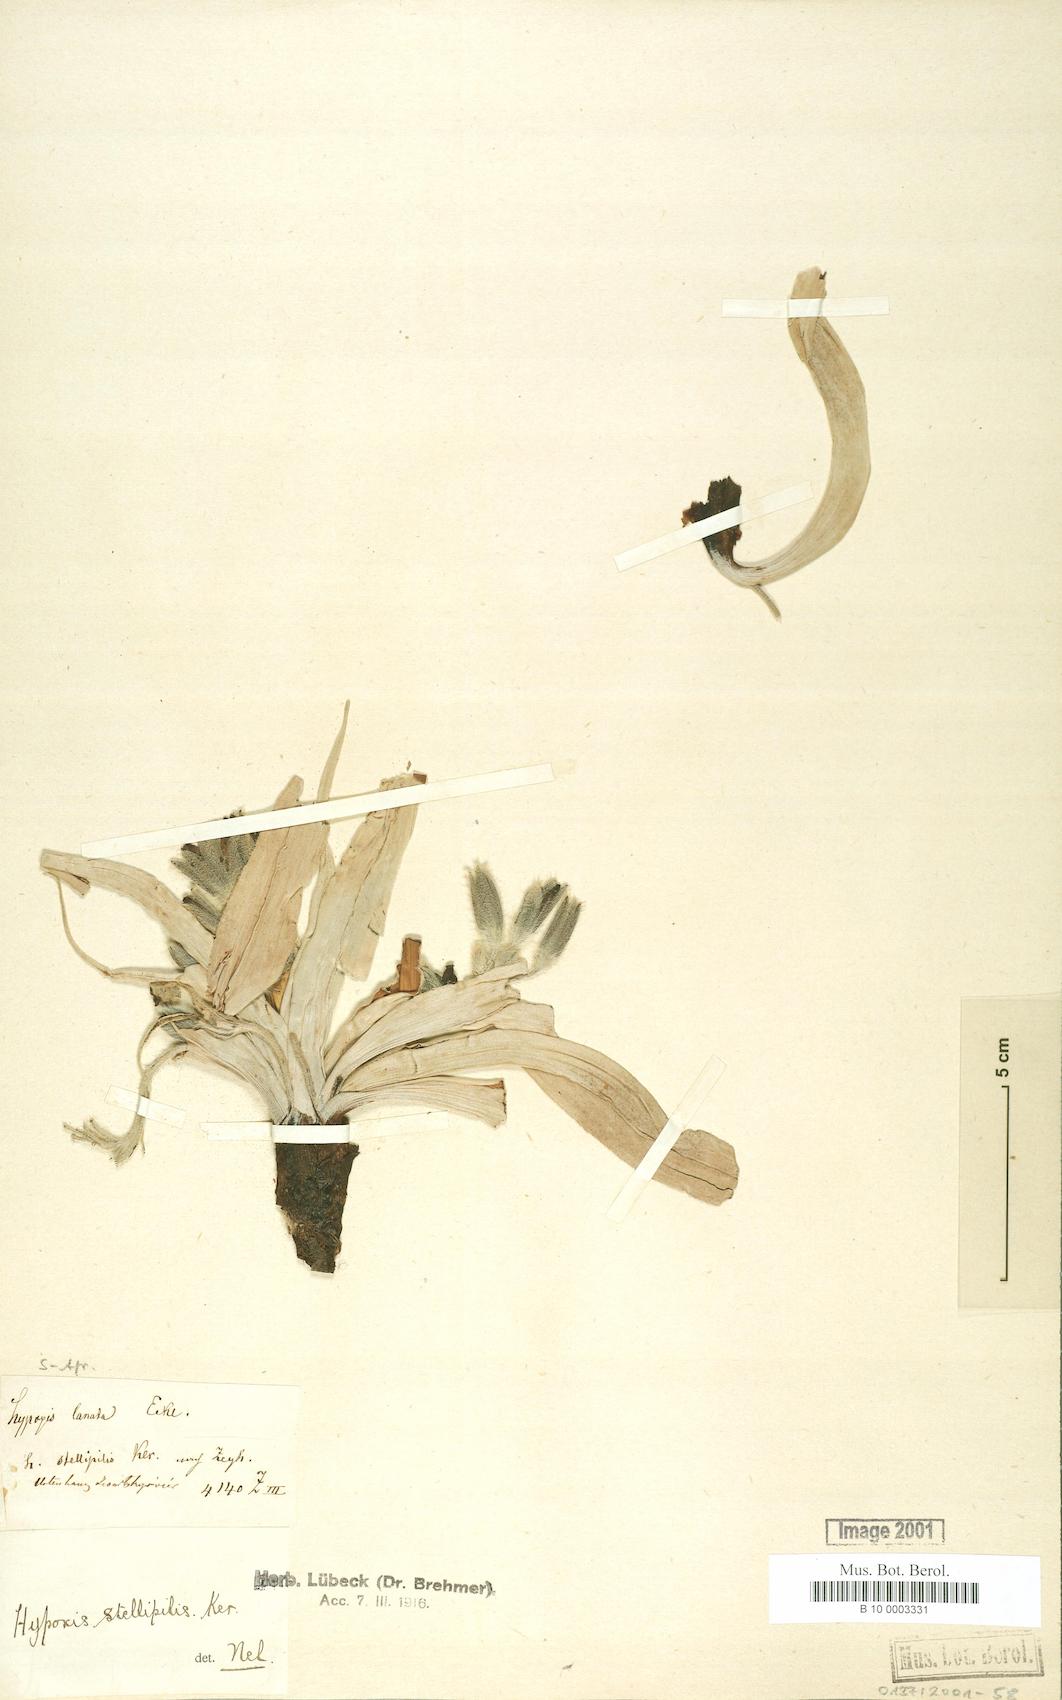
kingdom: Plantae
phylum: Tracheophyta
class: Liliopsida
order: Asparagales
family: Hypoxidaceae
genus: Hypoxis
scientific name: Hypoxis stellipilis
